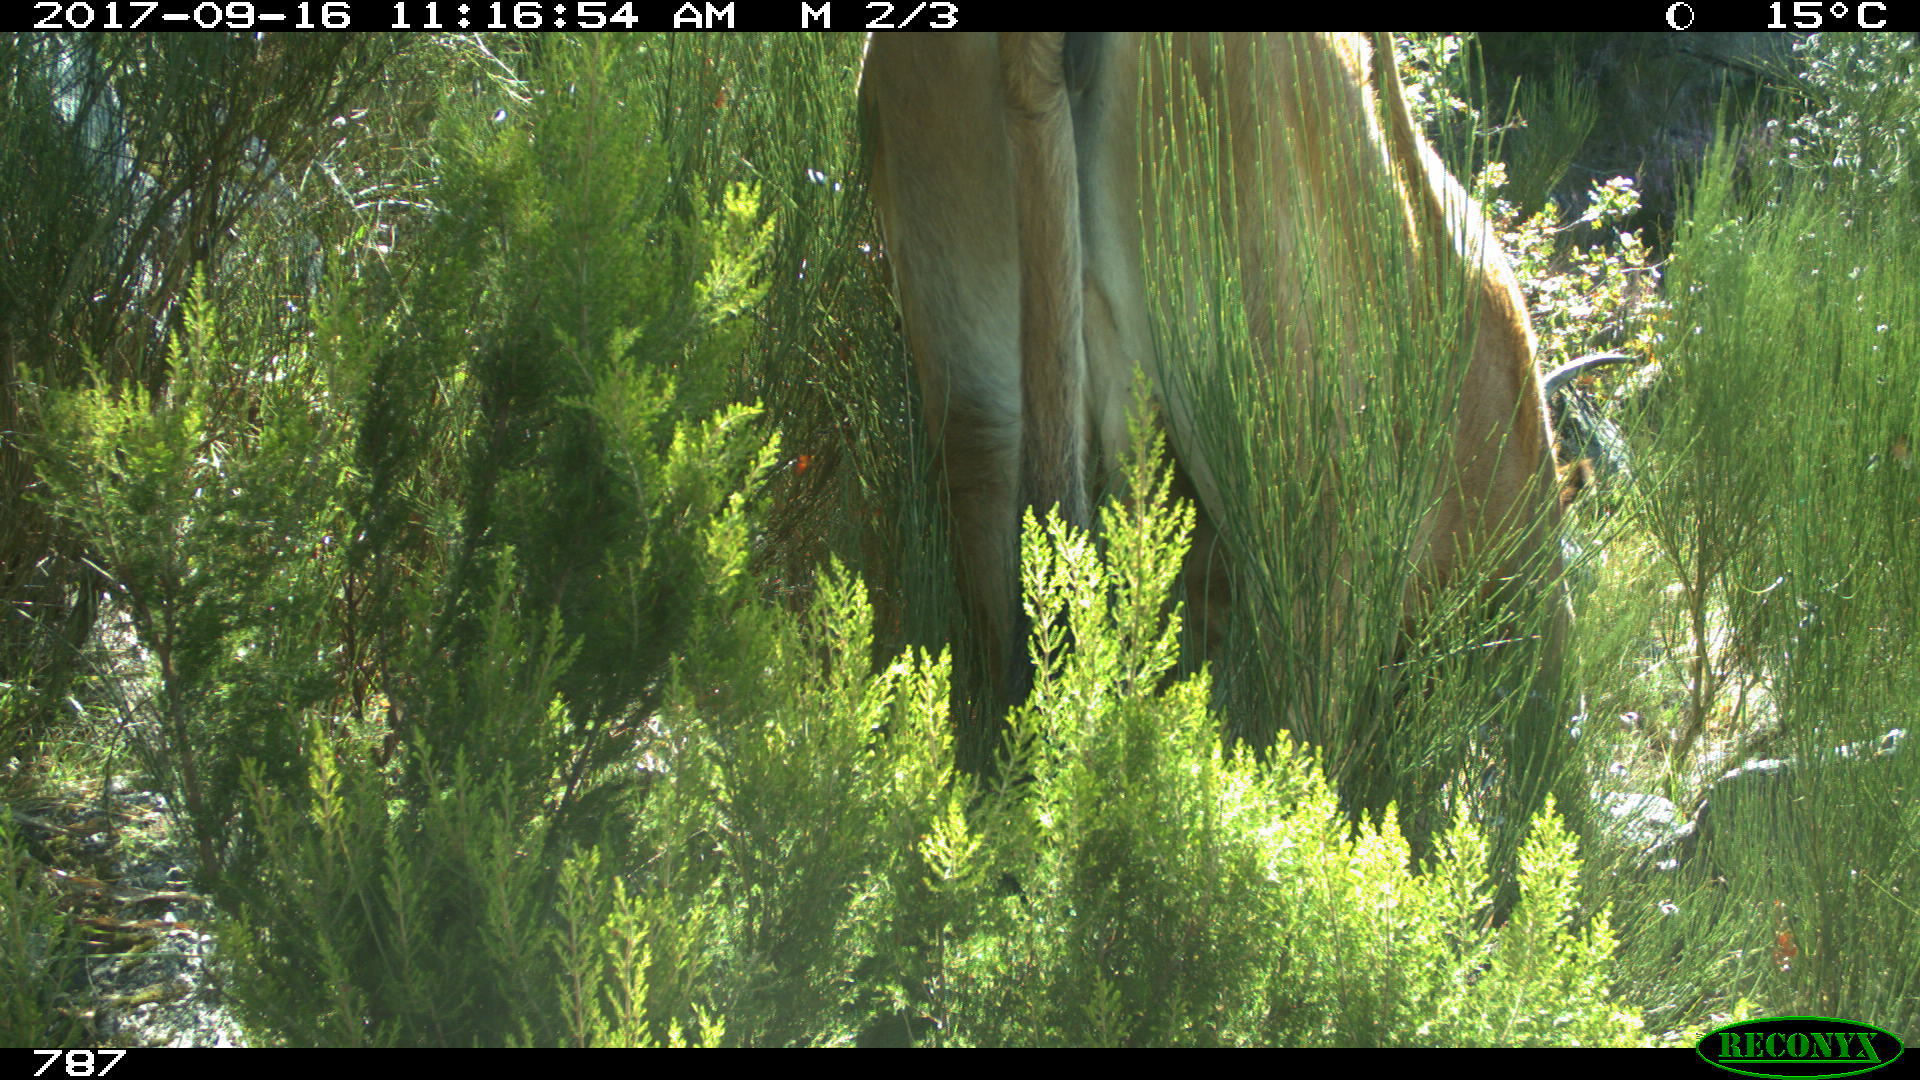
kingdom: Animalia
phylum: Chordata
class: Mammalia
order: Artiodactyla
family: Bovidae
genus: Bos
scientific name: Bos taurus
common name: Domesticated cattle
